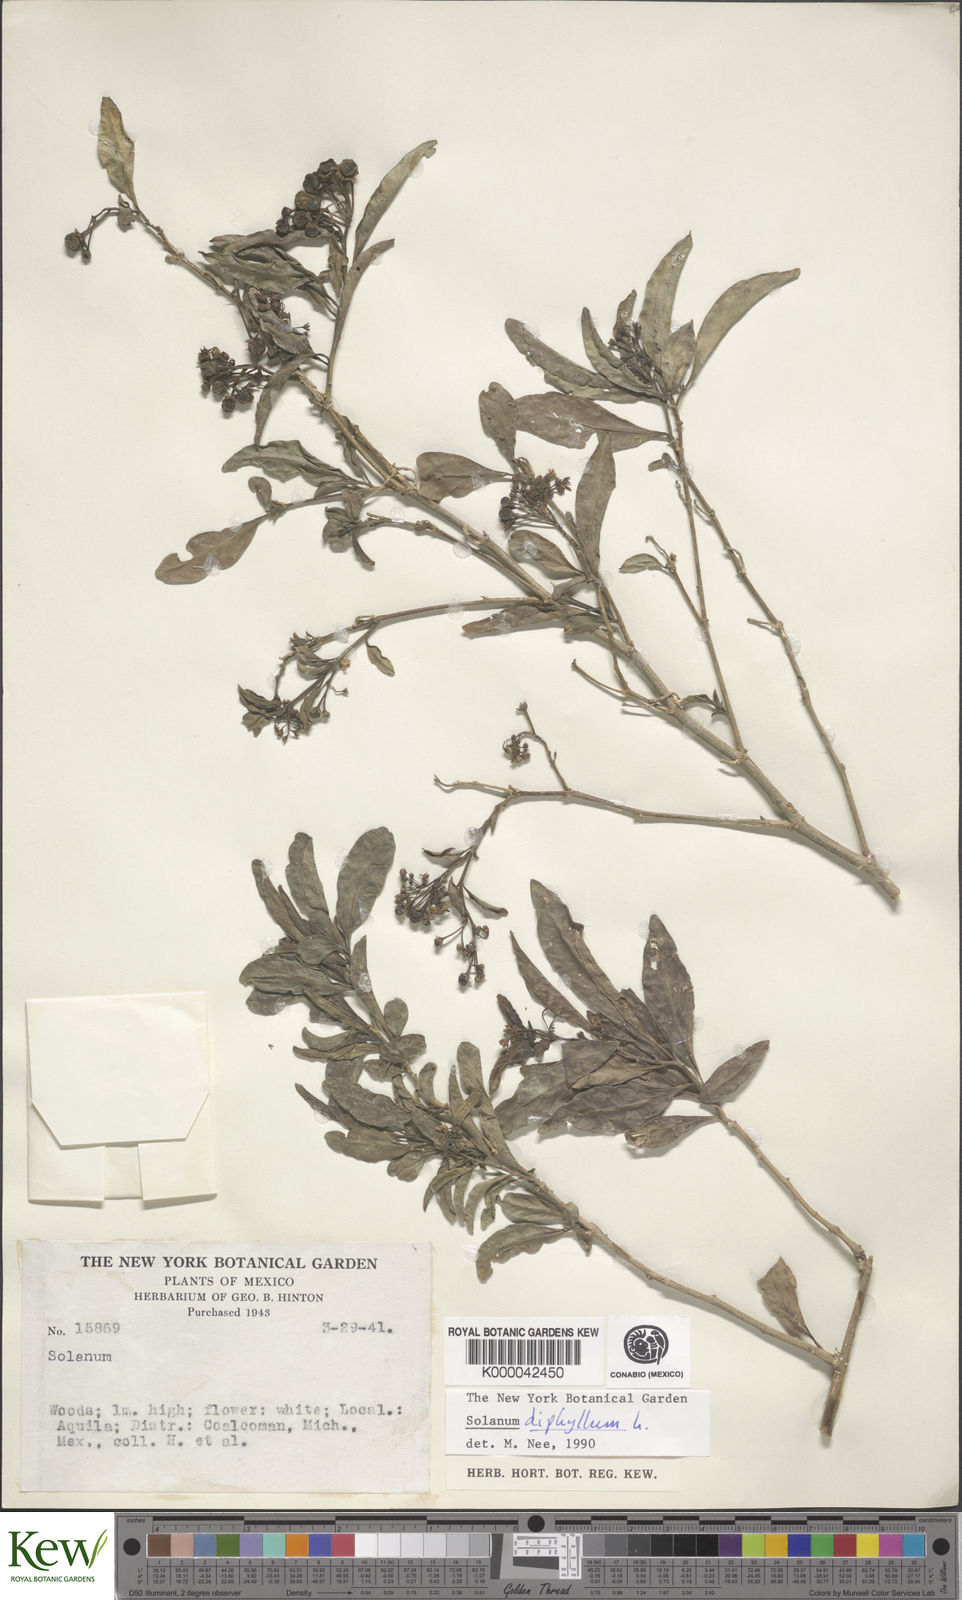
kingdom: Plantae
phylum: Tracheophyta
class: Magnoliopsida
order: Solanales
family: Solanaceae
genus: Solanum
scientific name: Solanum
